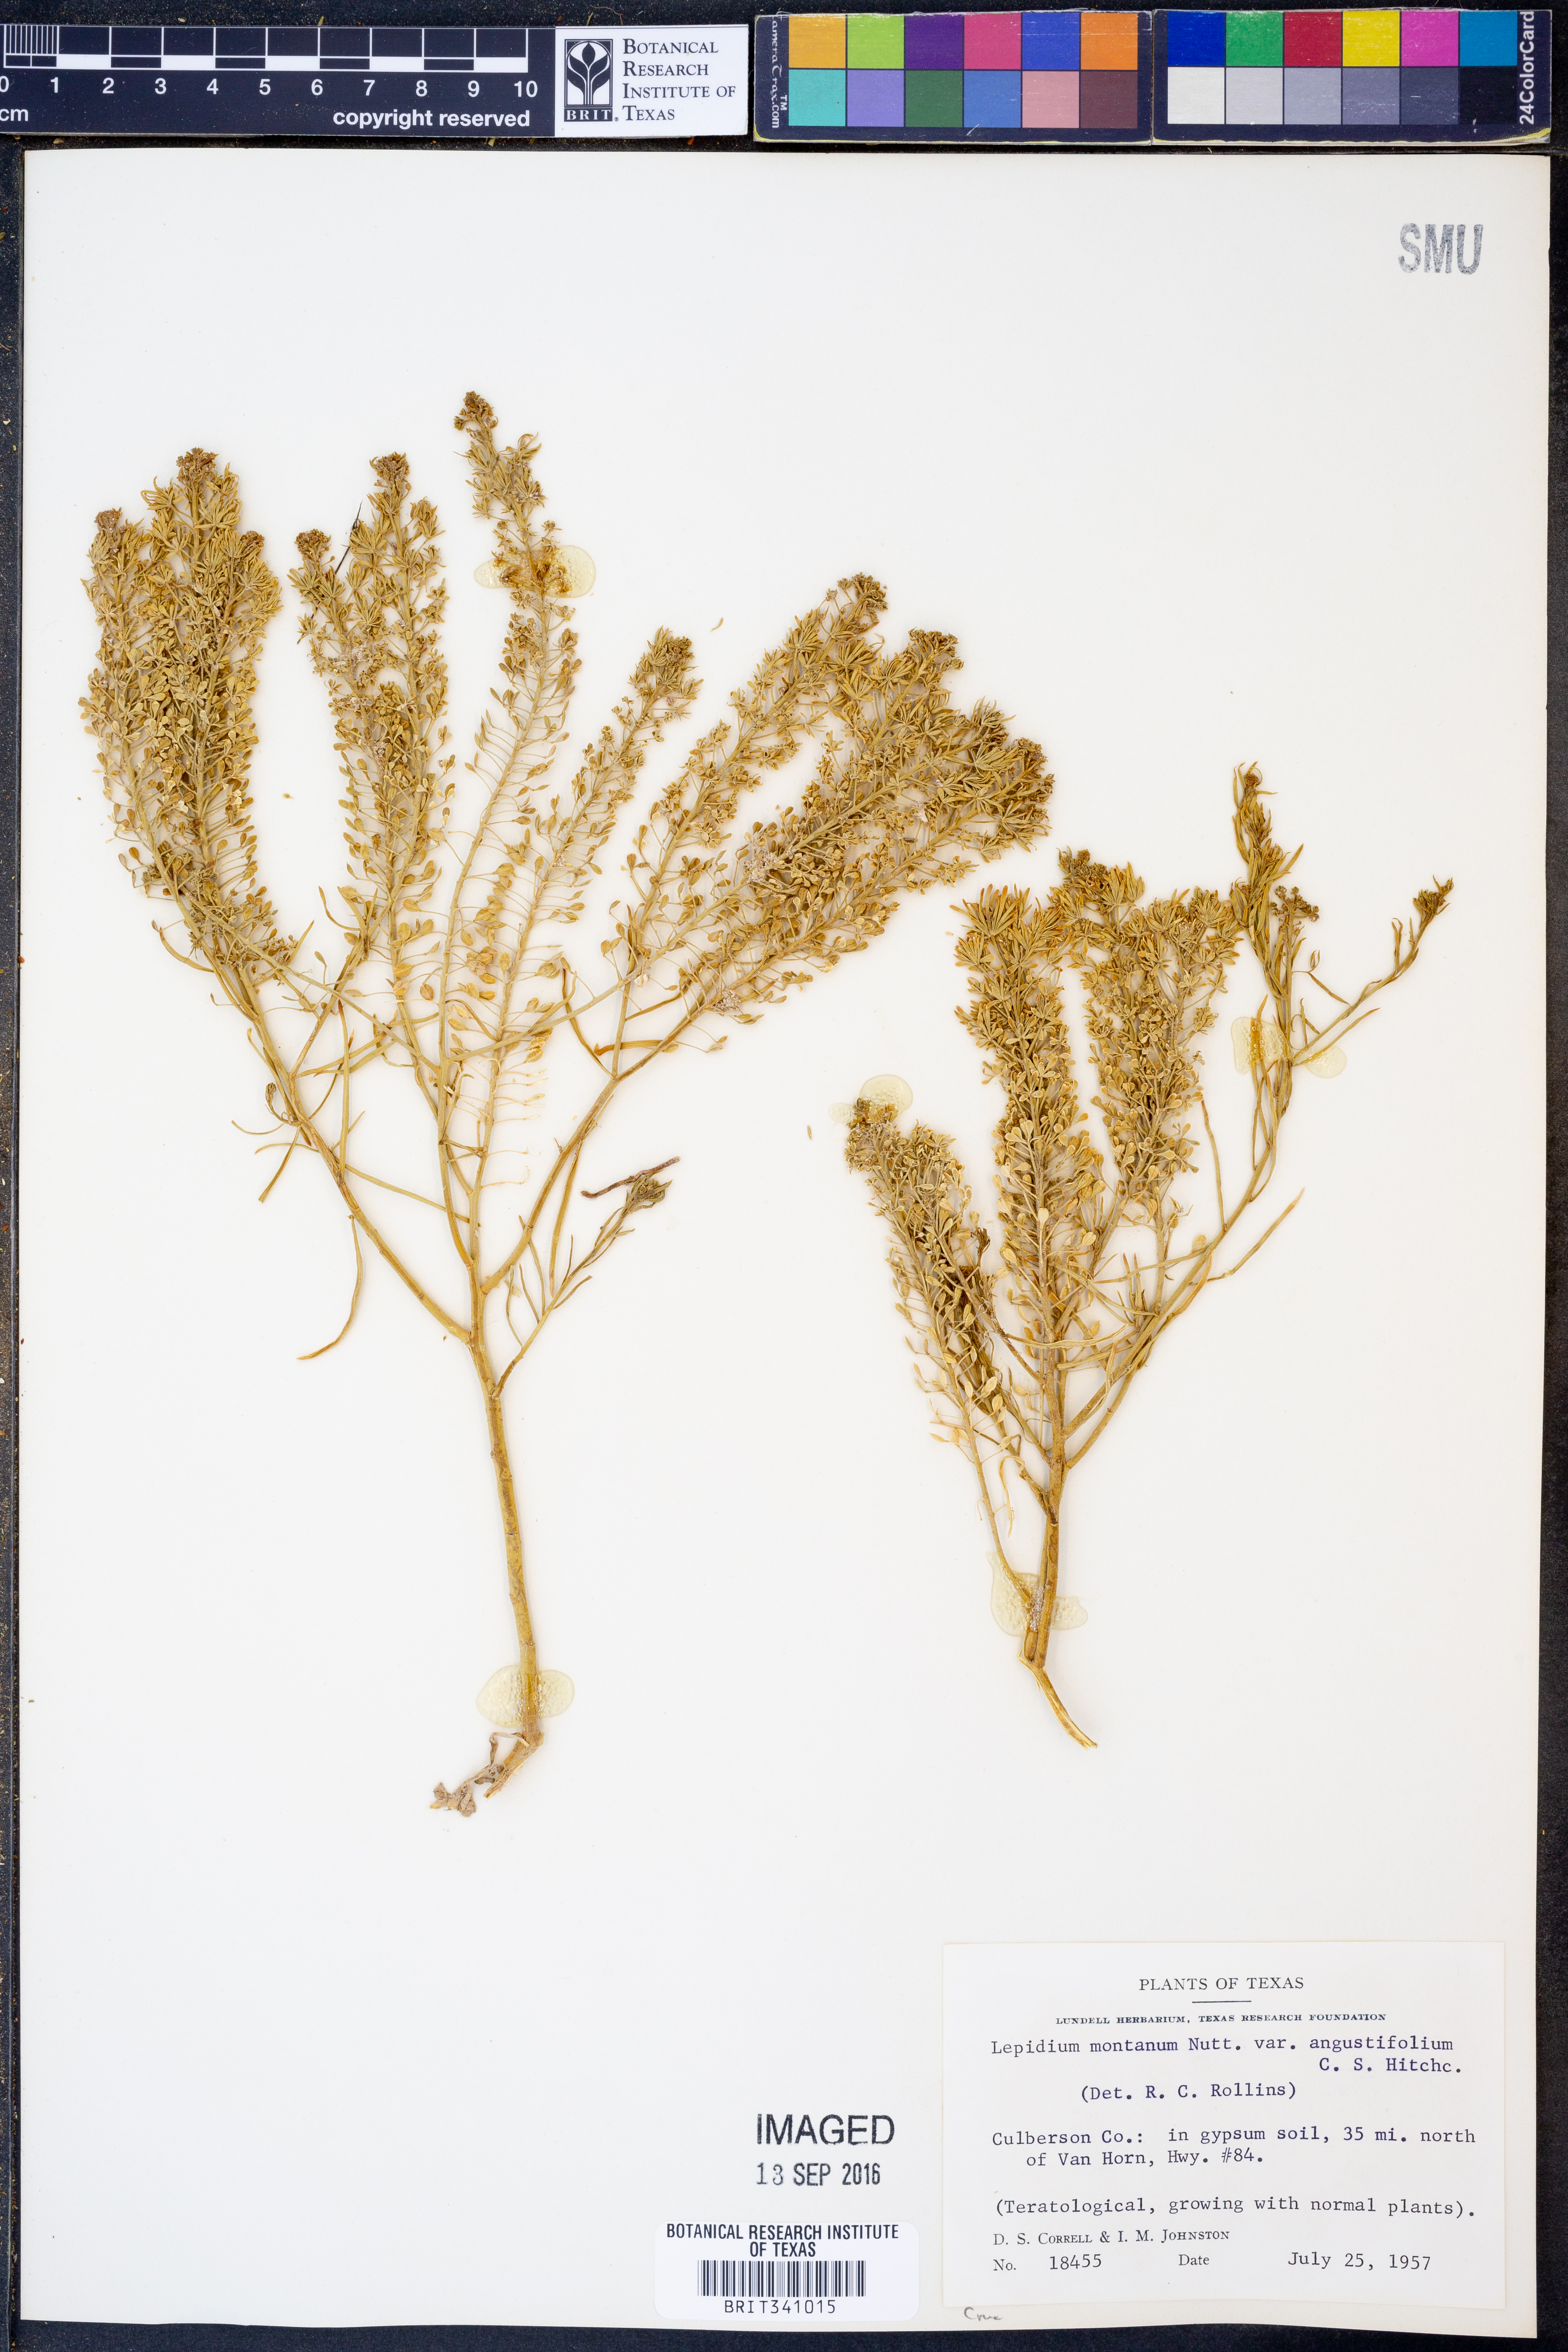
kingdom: Plantae
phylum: Tracheophyta
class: Magnoliopsida
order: Brassicales
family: Brassicaceae
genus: Lepidium
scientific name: Lepidium alyssoides
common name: Mesa pepperweed
